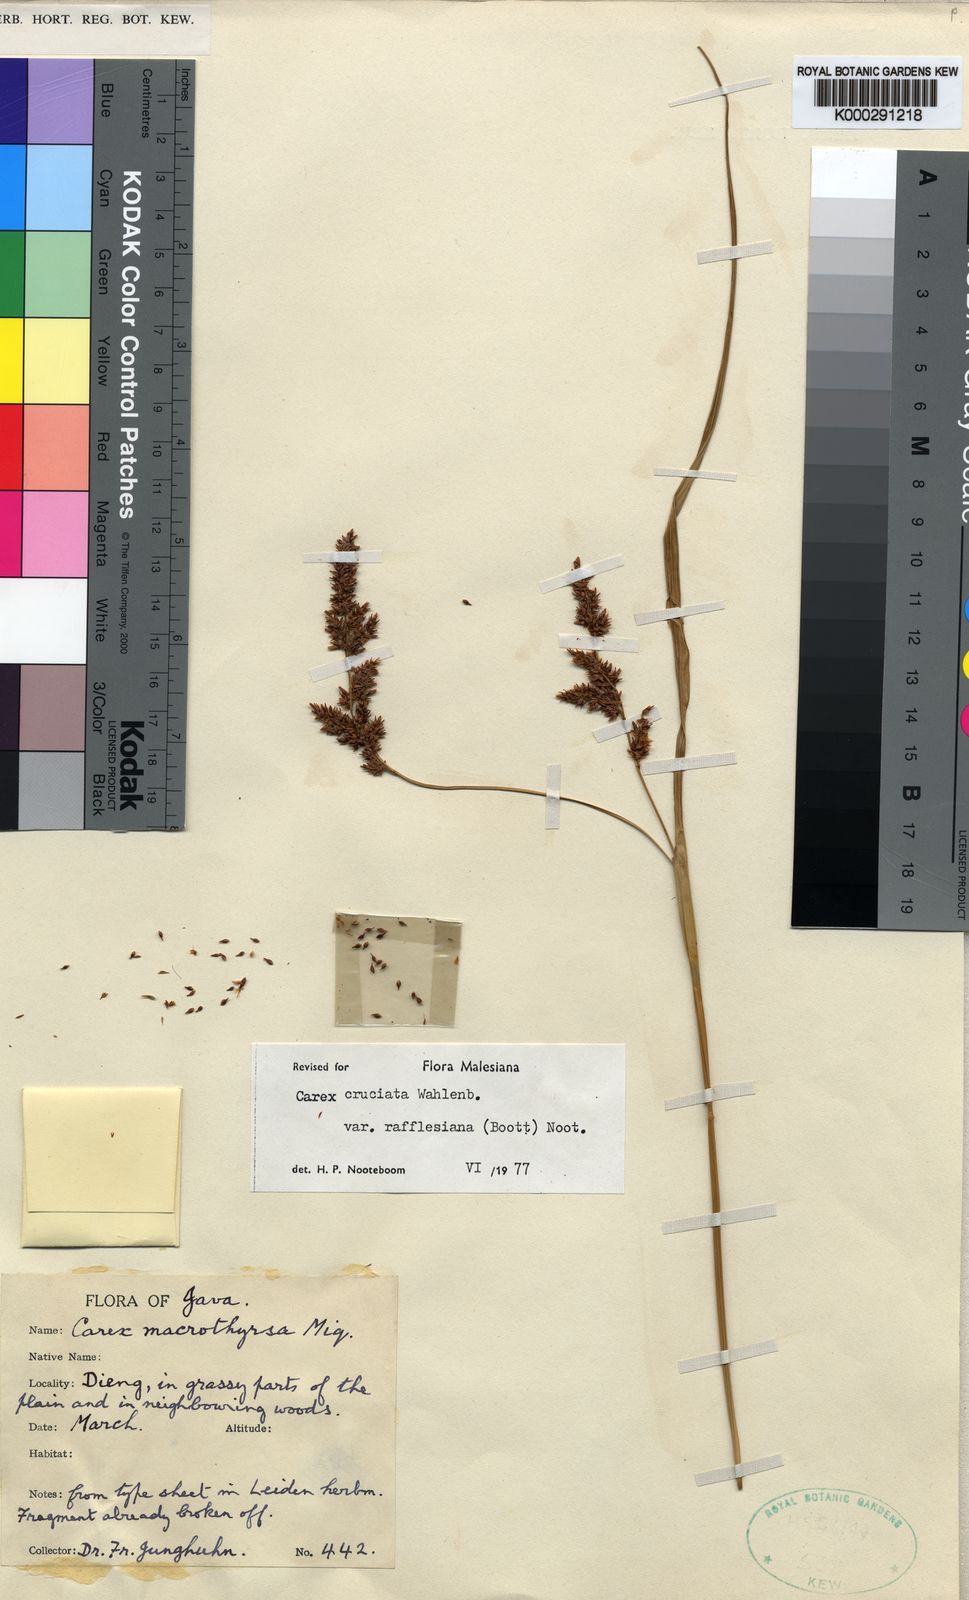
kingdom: Plantae
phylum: Tracheophyta
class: Liliopsida
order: Poales
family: Cyperaceae
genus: Carex
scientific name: Carex rafflesiana
